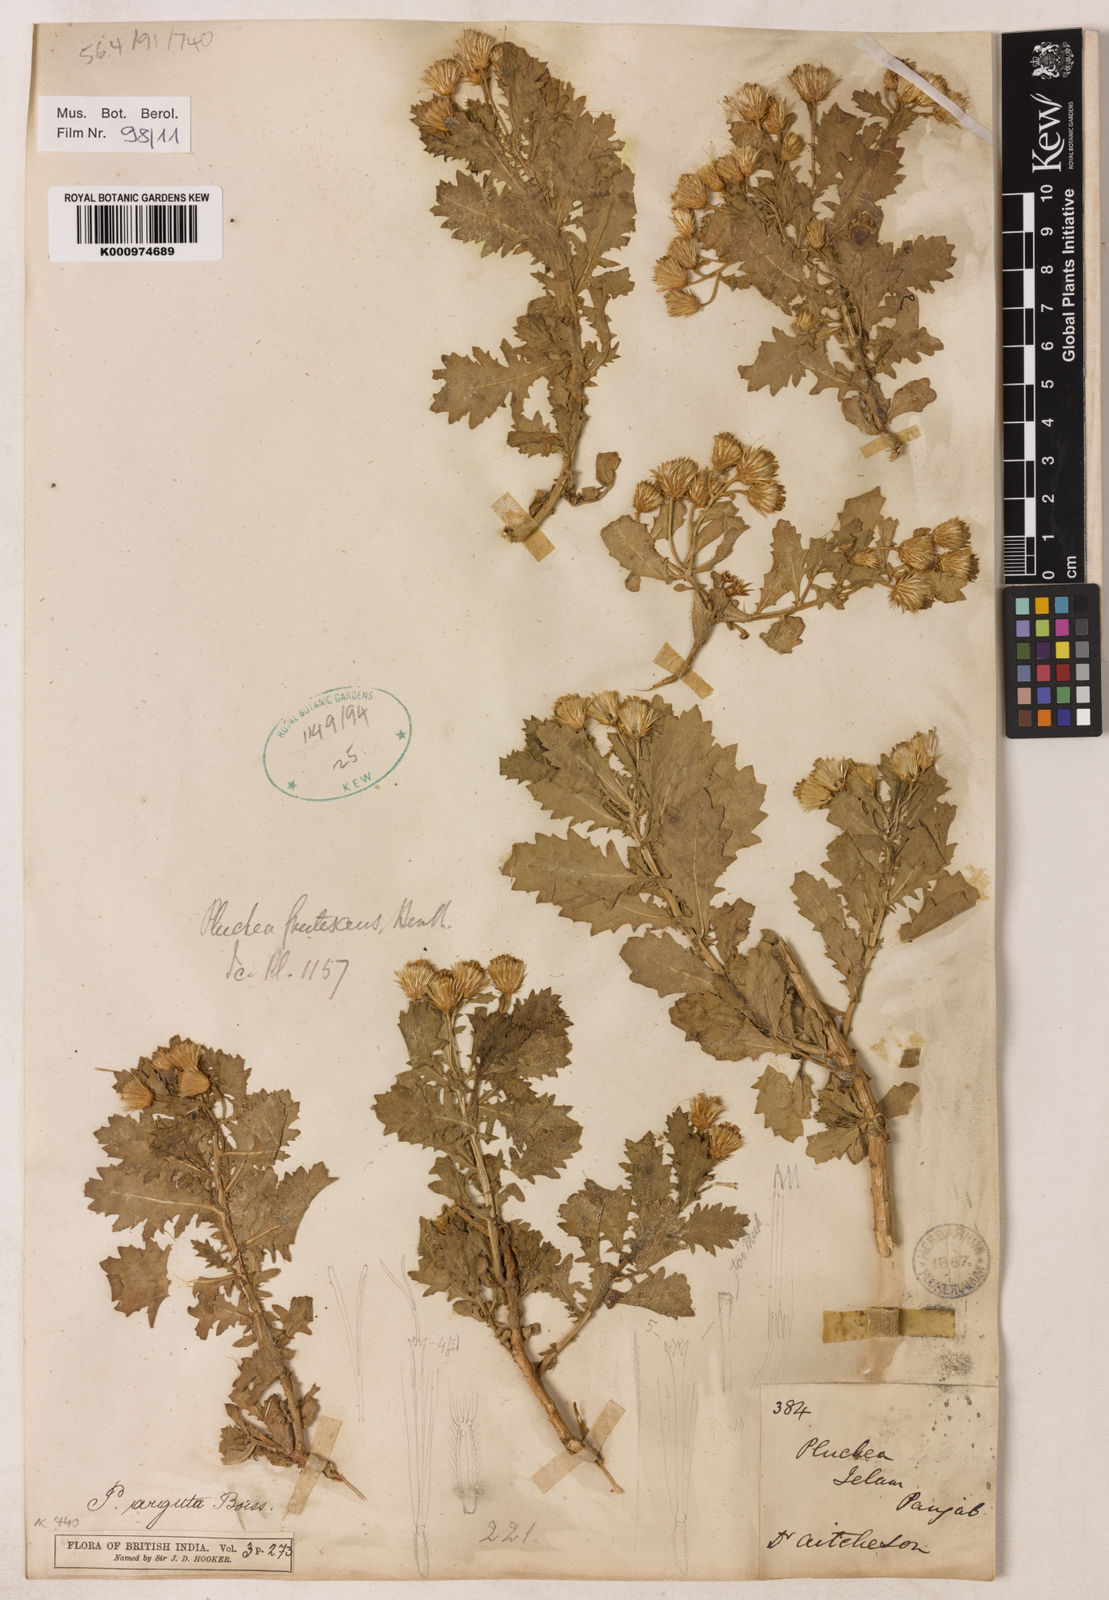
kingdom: Plantae
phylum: Tracheophyta
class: Magnoliopsida
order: Asterales
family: Asteraceae
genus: Pluchea
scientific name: Pluchea arguta
